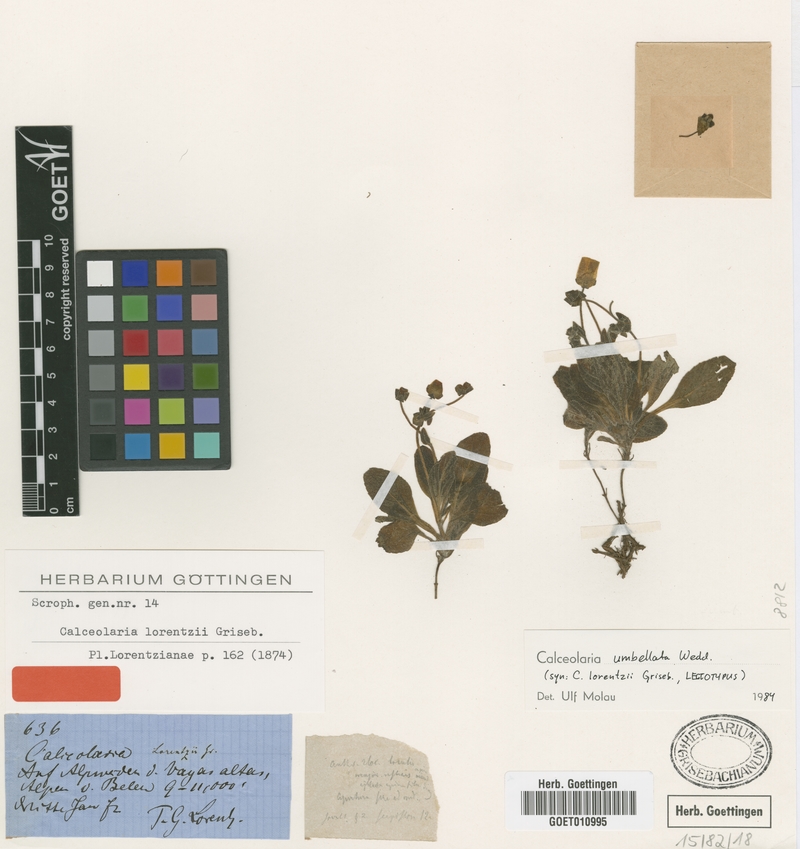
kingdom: Plantae
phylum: Tracheophyta
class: Magnoliopsida
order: Lamiales
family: Calceolariaceae
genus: Calceolaria
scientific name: Calceolaria umbellata
